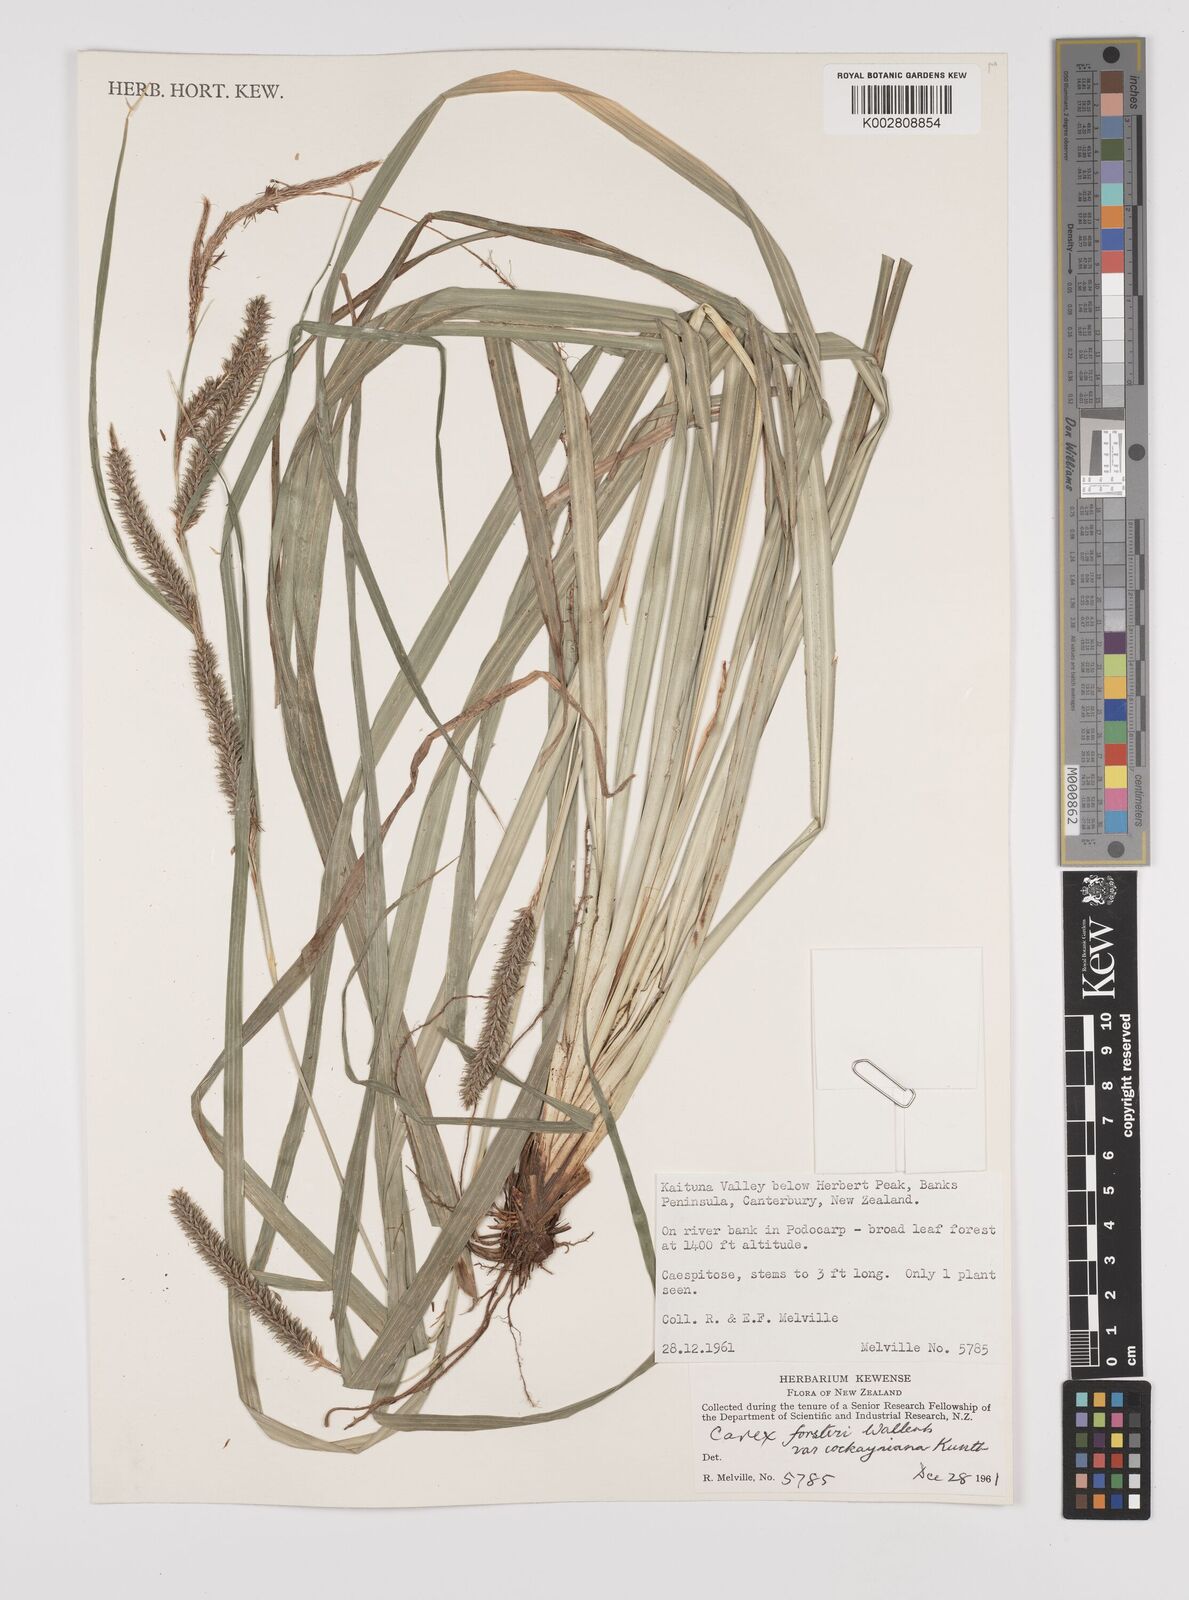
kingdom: Plantae
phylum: Tracheophyta
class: Liliopsida
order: Poales
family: Cyperaceae
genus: Carex
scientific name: Carex forsteri
